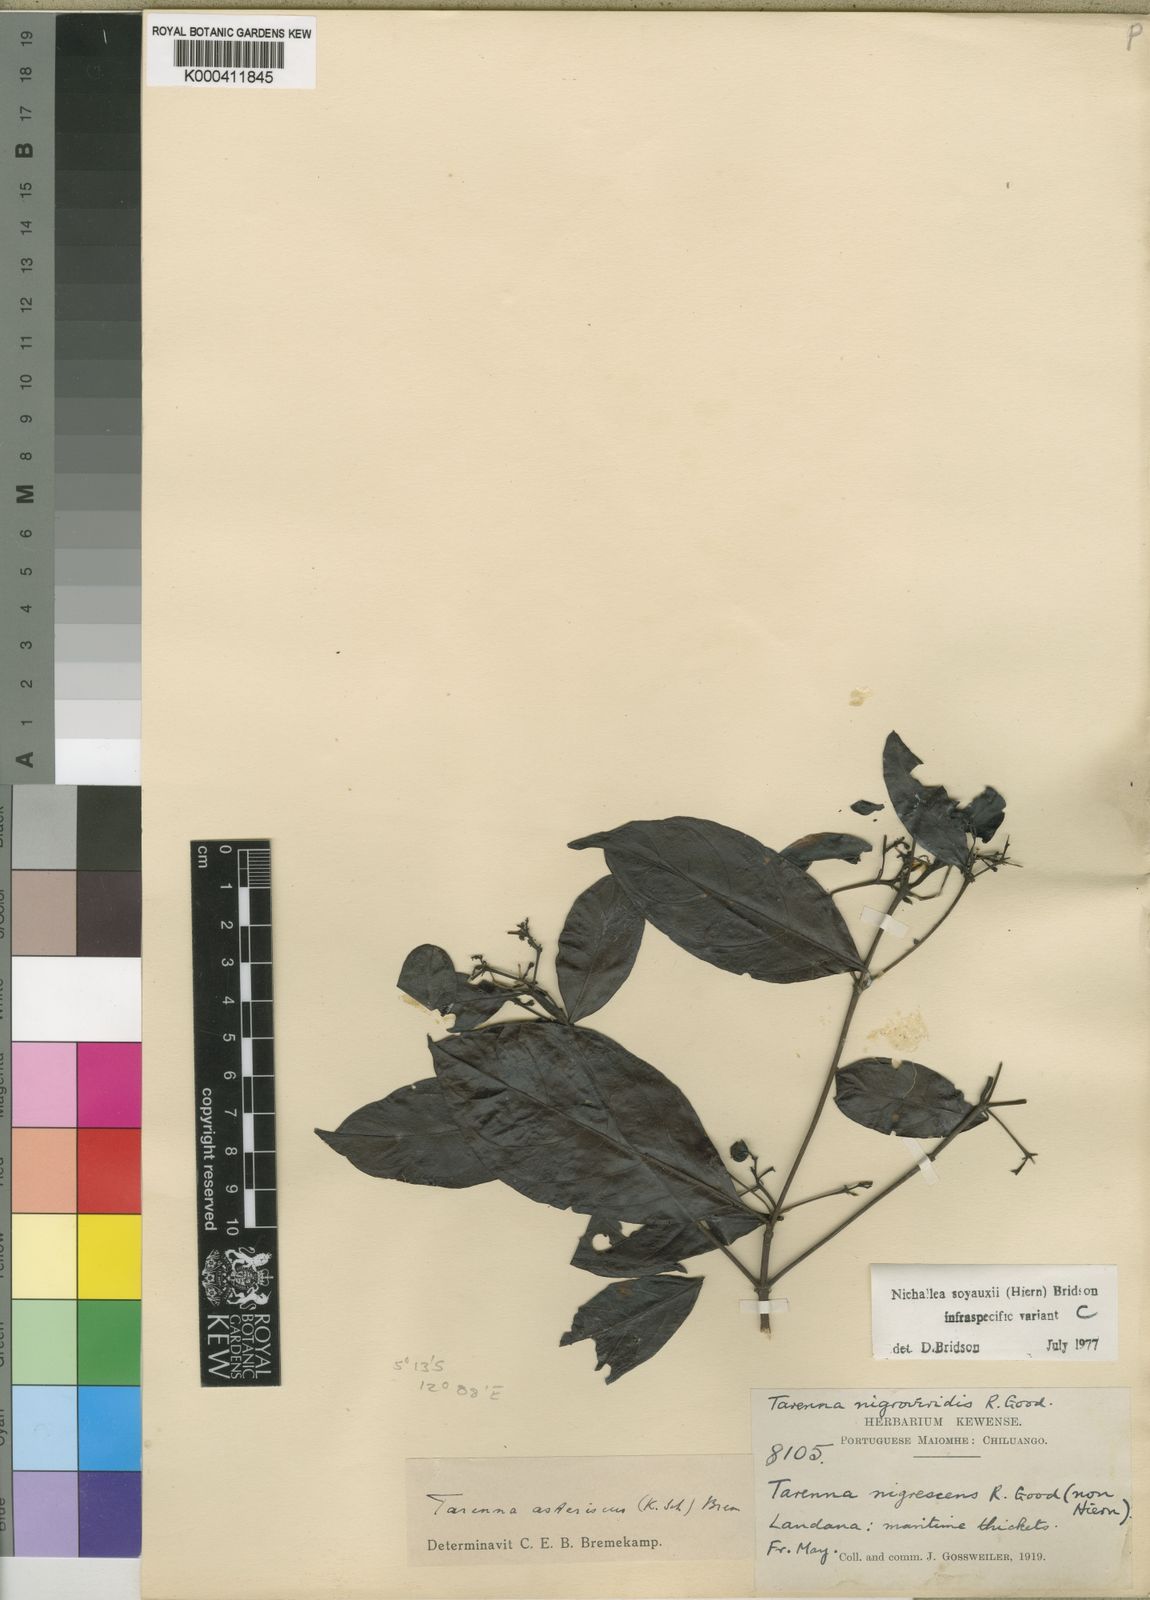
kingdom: Plantae
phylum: Tracheophyta
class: Magnoliopsida
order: Gentianales
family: Rubiaceae
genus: Nichallea
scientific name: Nichallea soyauxii
